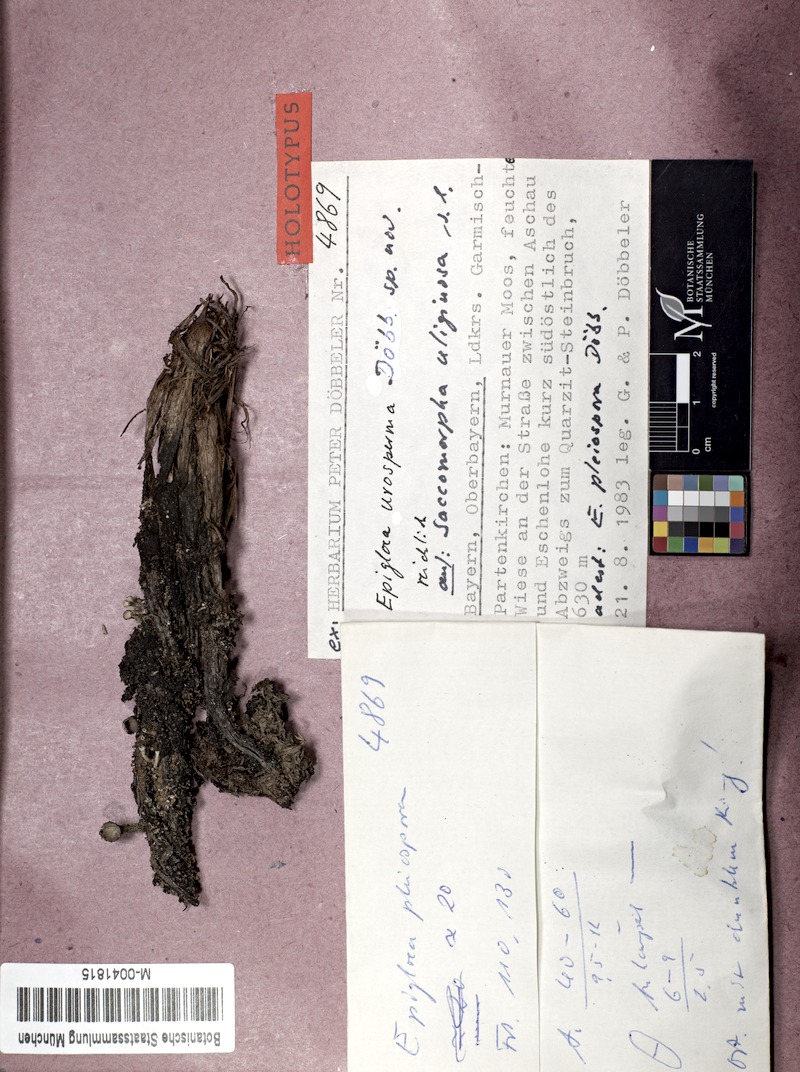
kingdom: Fungi
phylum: Ascomycota
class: Lecanoromycetes
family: Epigloeaceae
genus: Epigloea
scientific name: Epigloea urosperma
